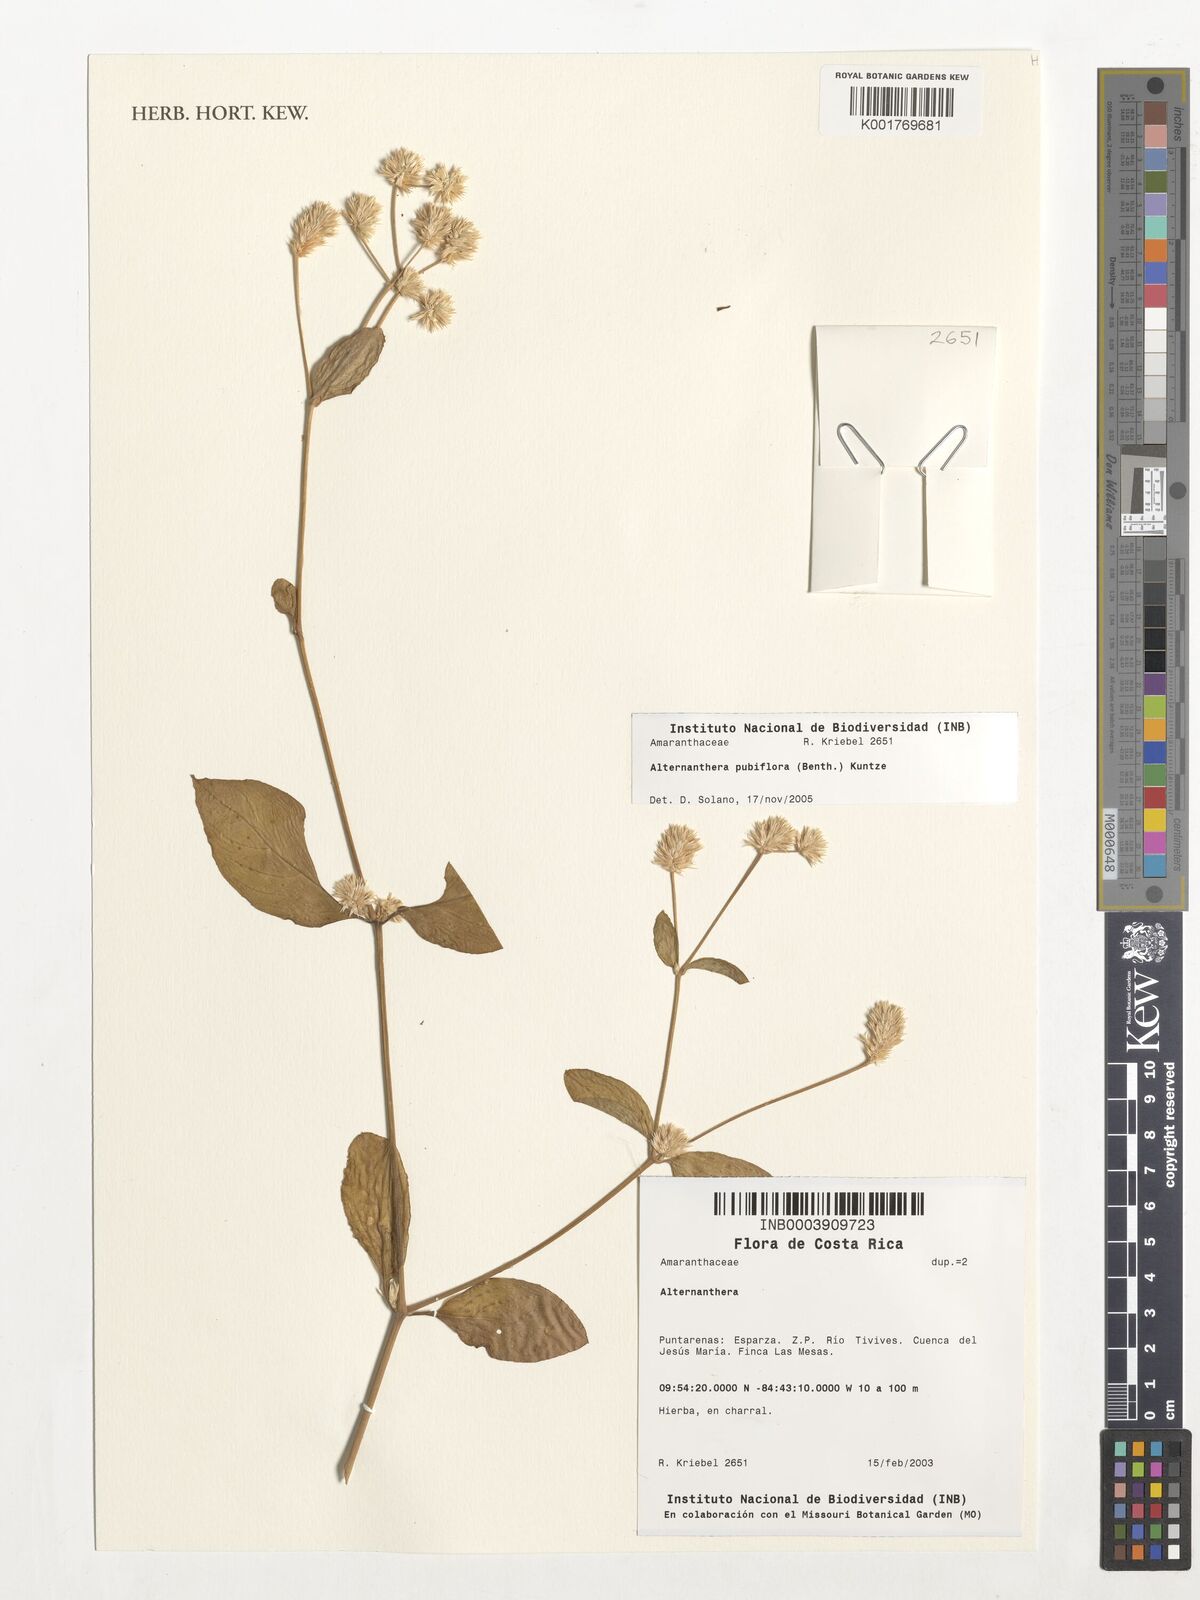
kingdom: Plantae
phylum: Tracheophyta
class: Magnoliopsida
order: Caryophyllales
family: Amaranthaceae
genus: Alternanthera
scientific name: Alternanthera pubiflora
